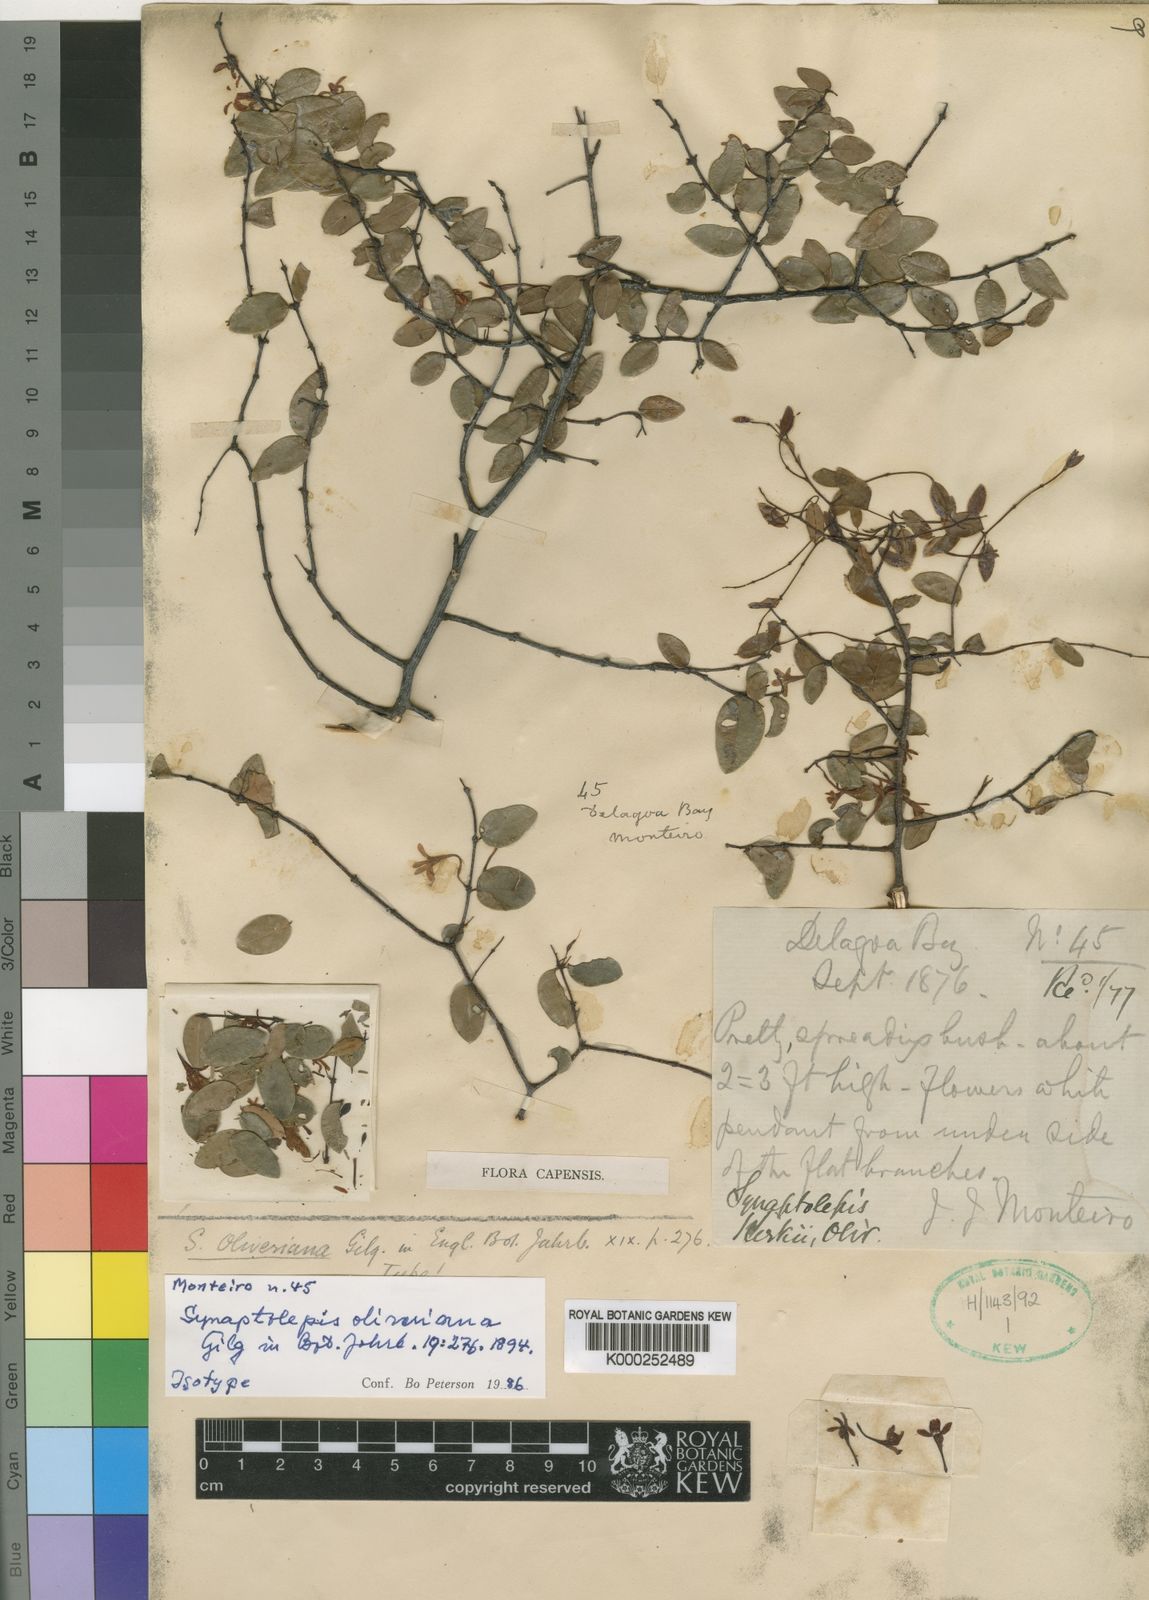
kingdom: Plantae
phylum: Tracheophyta
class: Magnoliopsida
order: Malvales
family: Thymelaeaceae
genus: Synaptolepis
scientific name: Synaptolepis oliveriana
